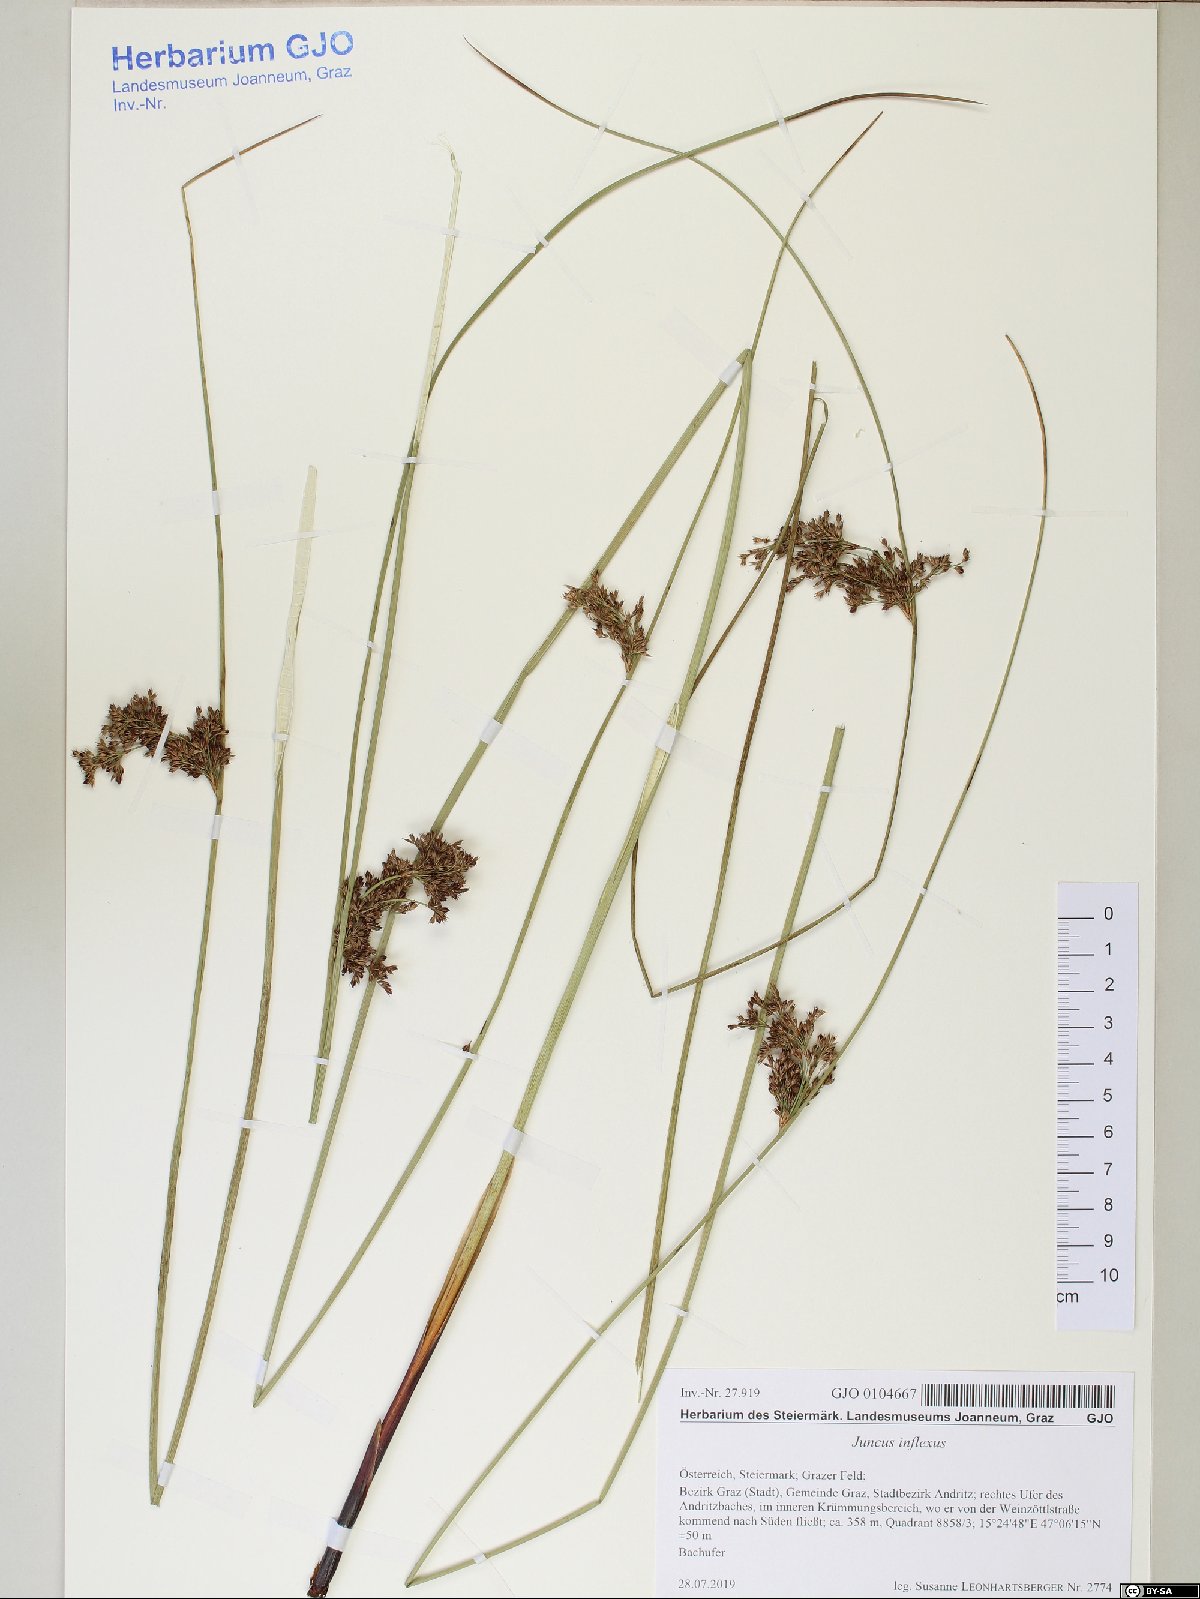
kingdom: Plantae
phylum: Tracheophyta
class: Liliopsida
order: Poales
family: Juncaceae
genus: Juncus
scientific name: Juncus inflexus
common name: Hard rush
